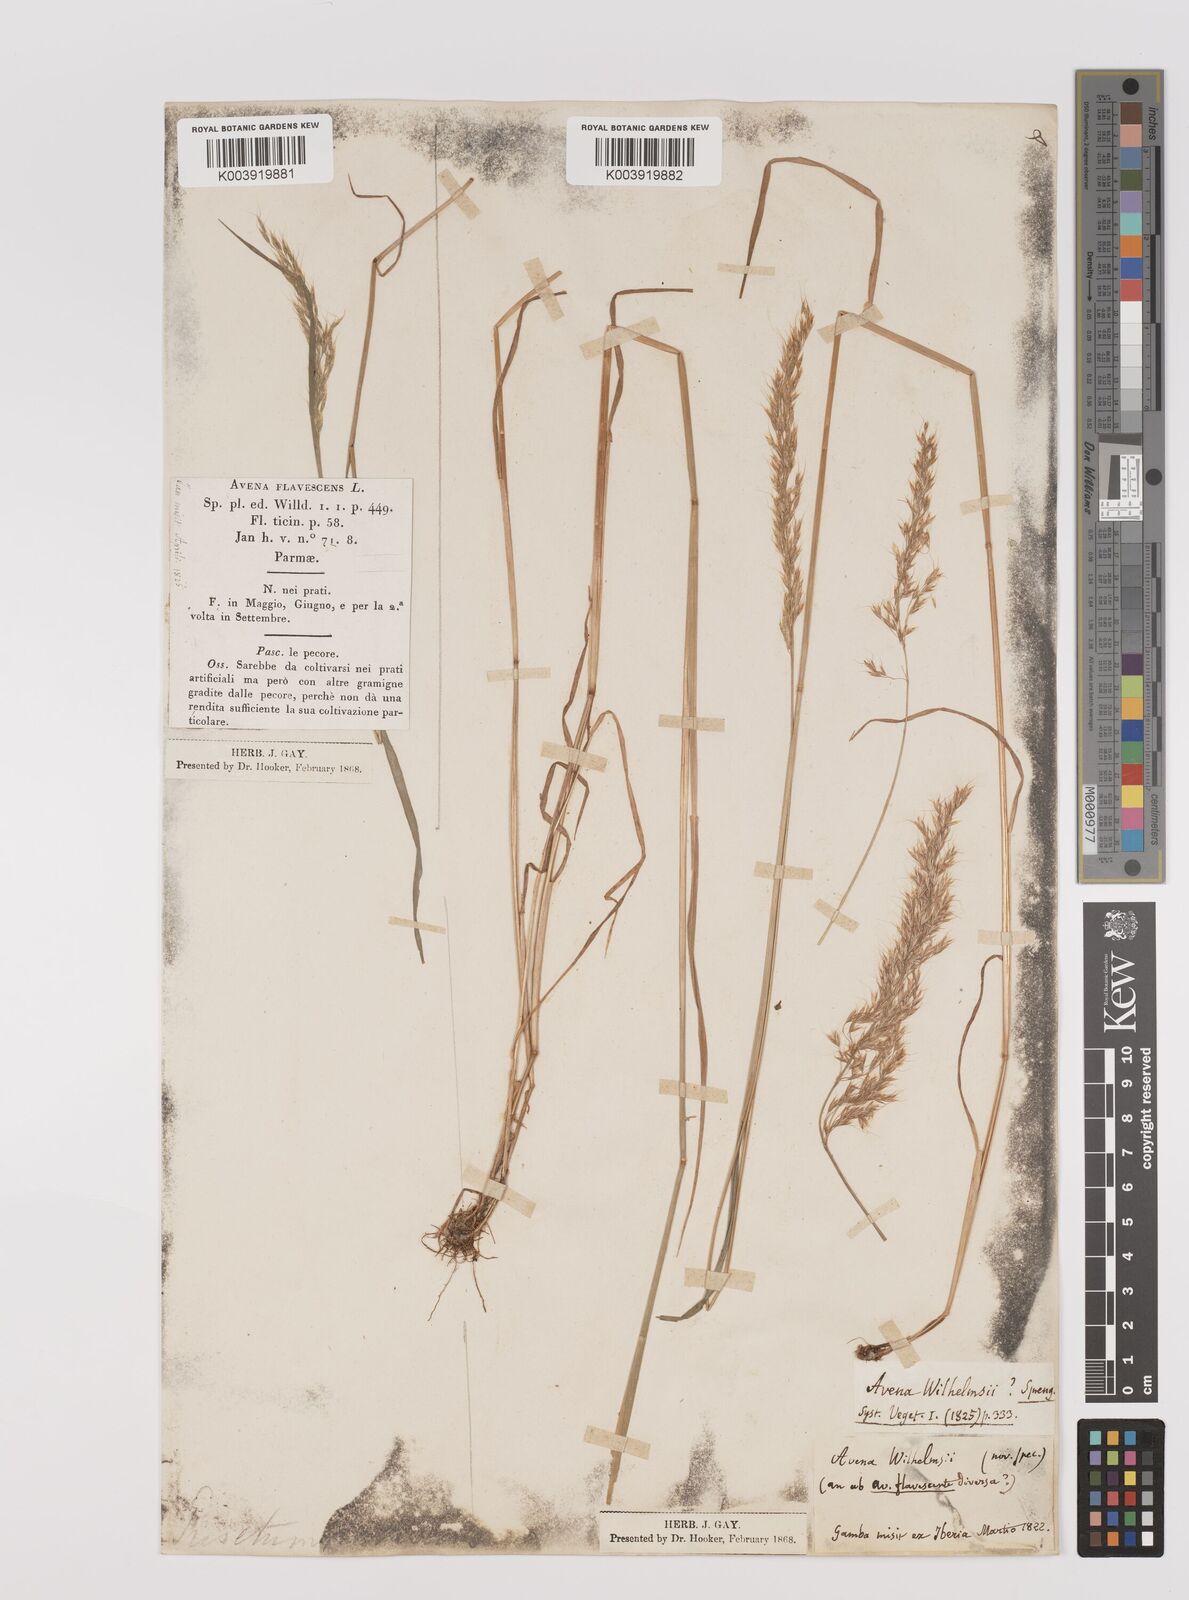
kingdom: Plantae
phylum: Tracheophyta
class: Liliopsida
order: Poales
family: Poaceae
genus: Trisetum
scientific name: Trisetum flavescens
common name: Yellow oat-grass
